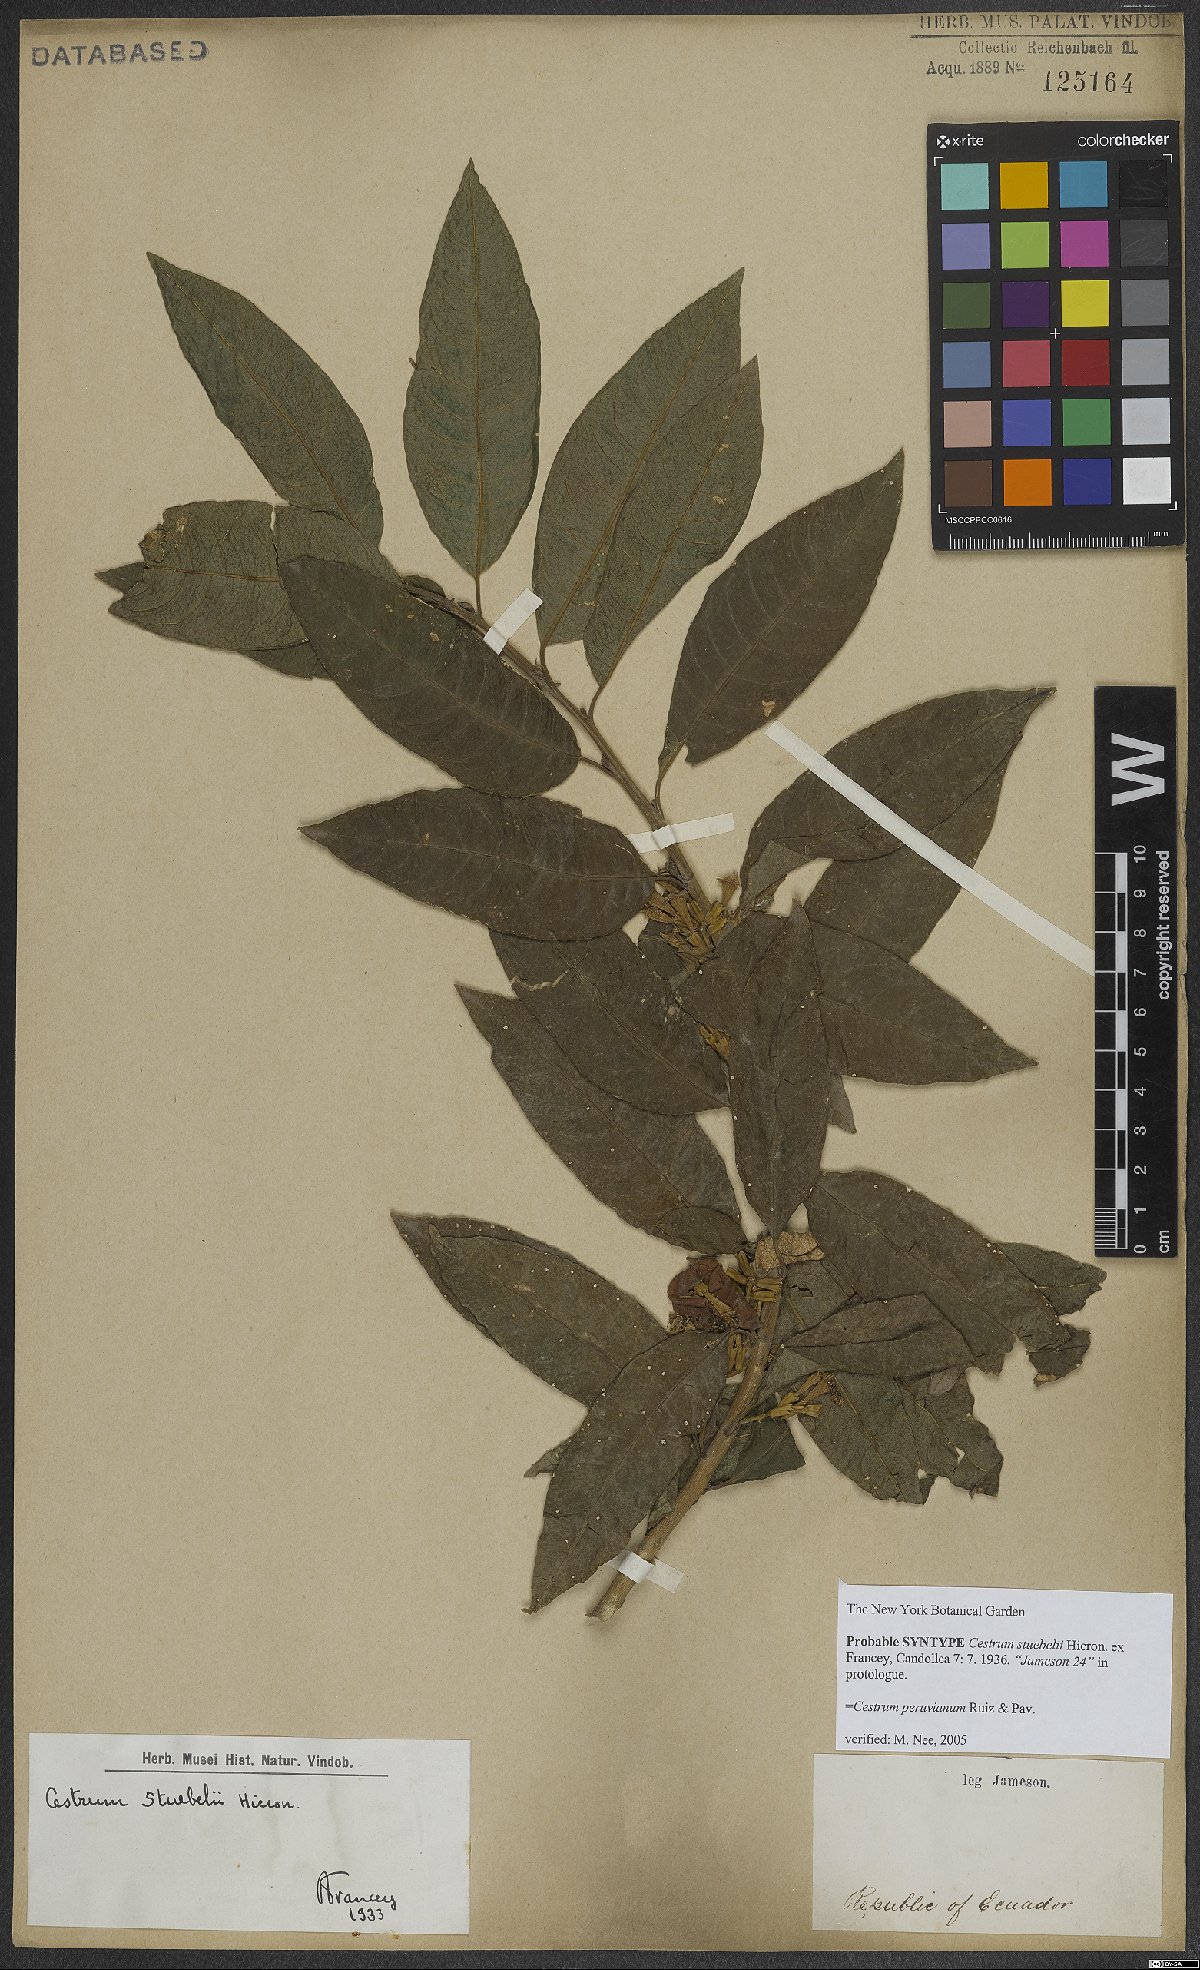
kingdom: Plantae
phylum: Tracheophyta
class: Magnoliopsida
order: Solanales
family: Solanaceae
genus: Cestrum
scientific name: Cestrum peruvianum
